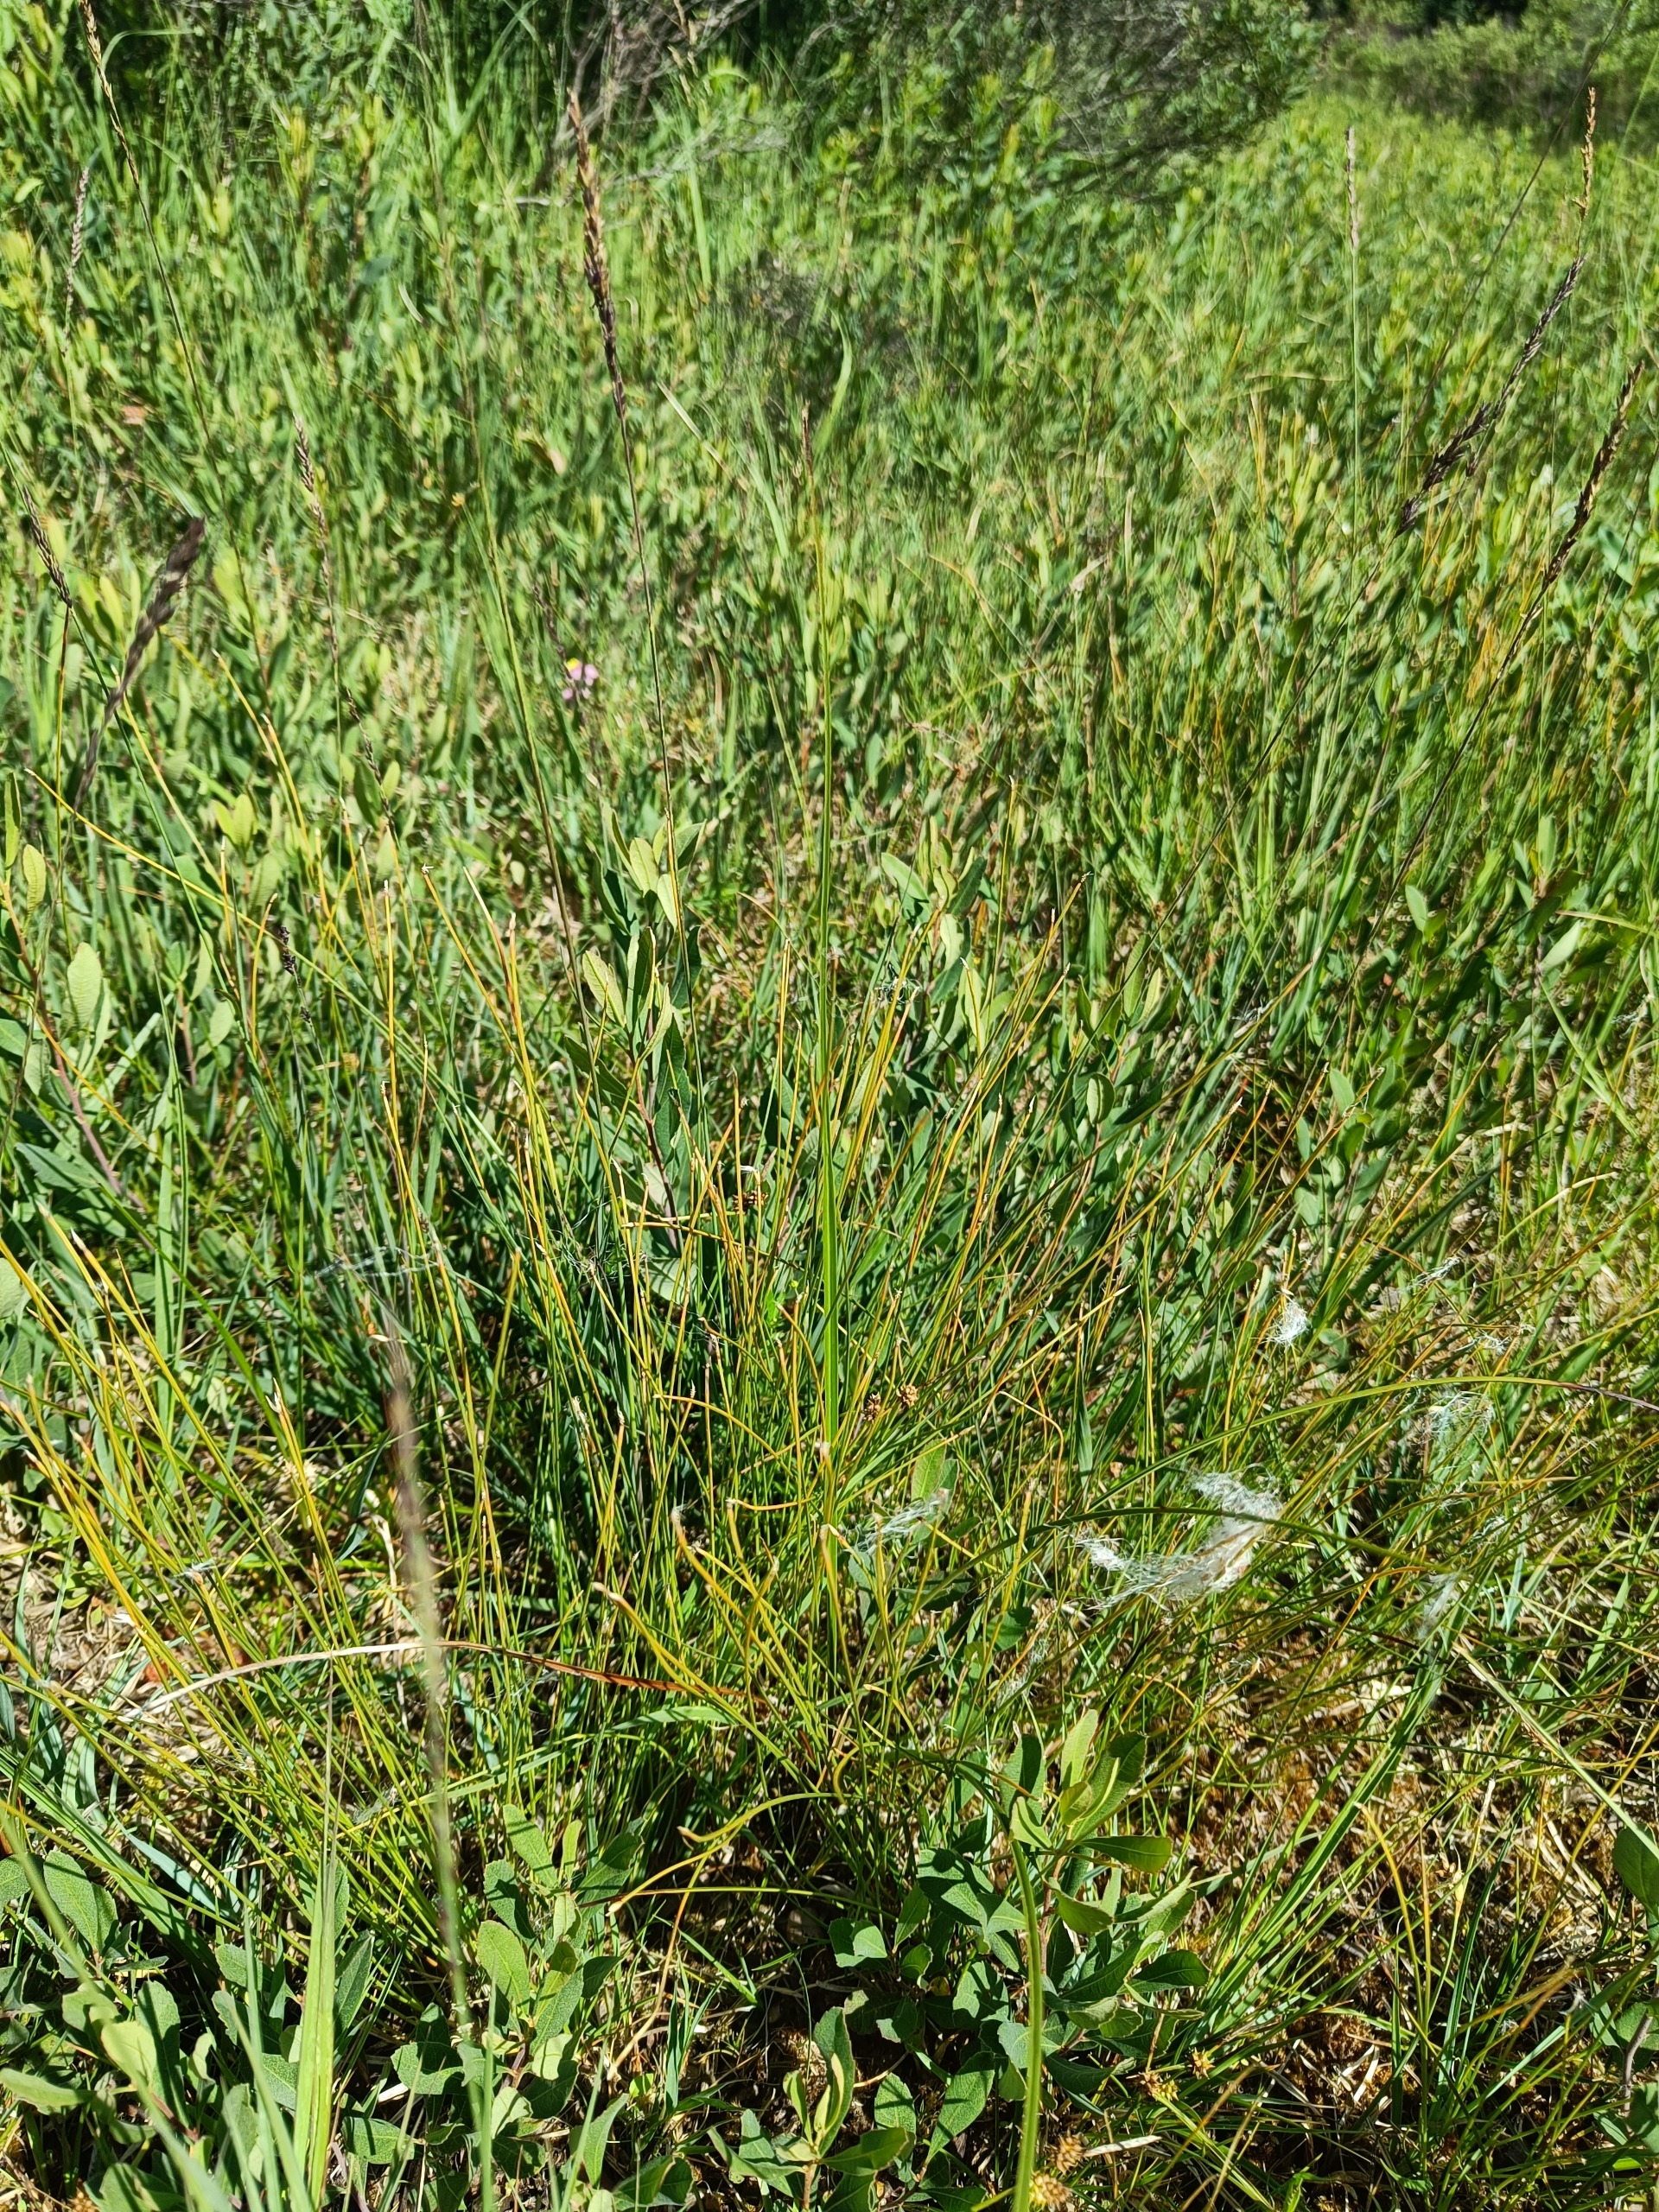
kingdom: Plantae
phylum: Tracheophyta
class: Liliopsida
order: Poales
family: Cyperaceae
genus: Trichophorum
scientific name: Trichophorum alpinum
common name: Liden kæruld
